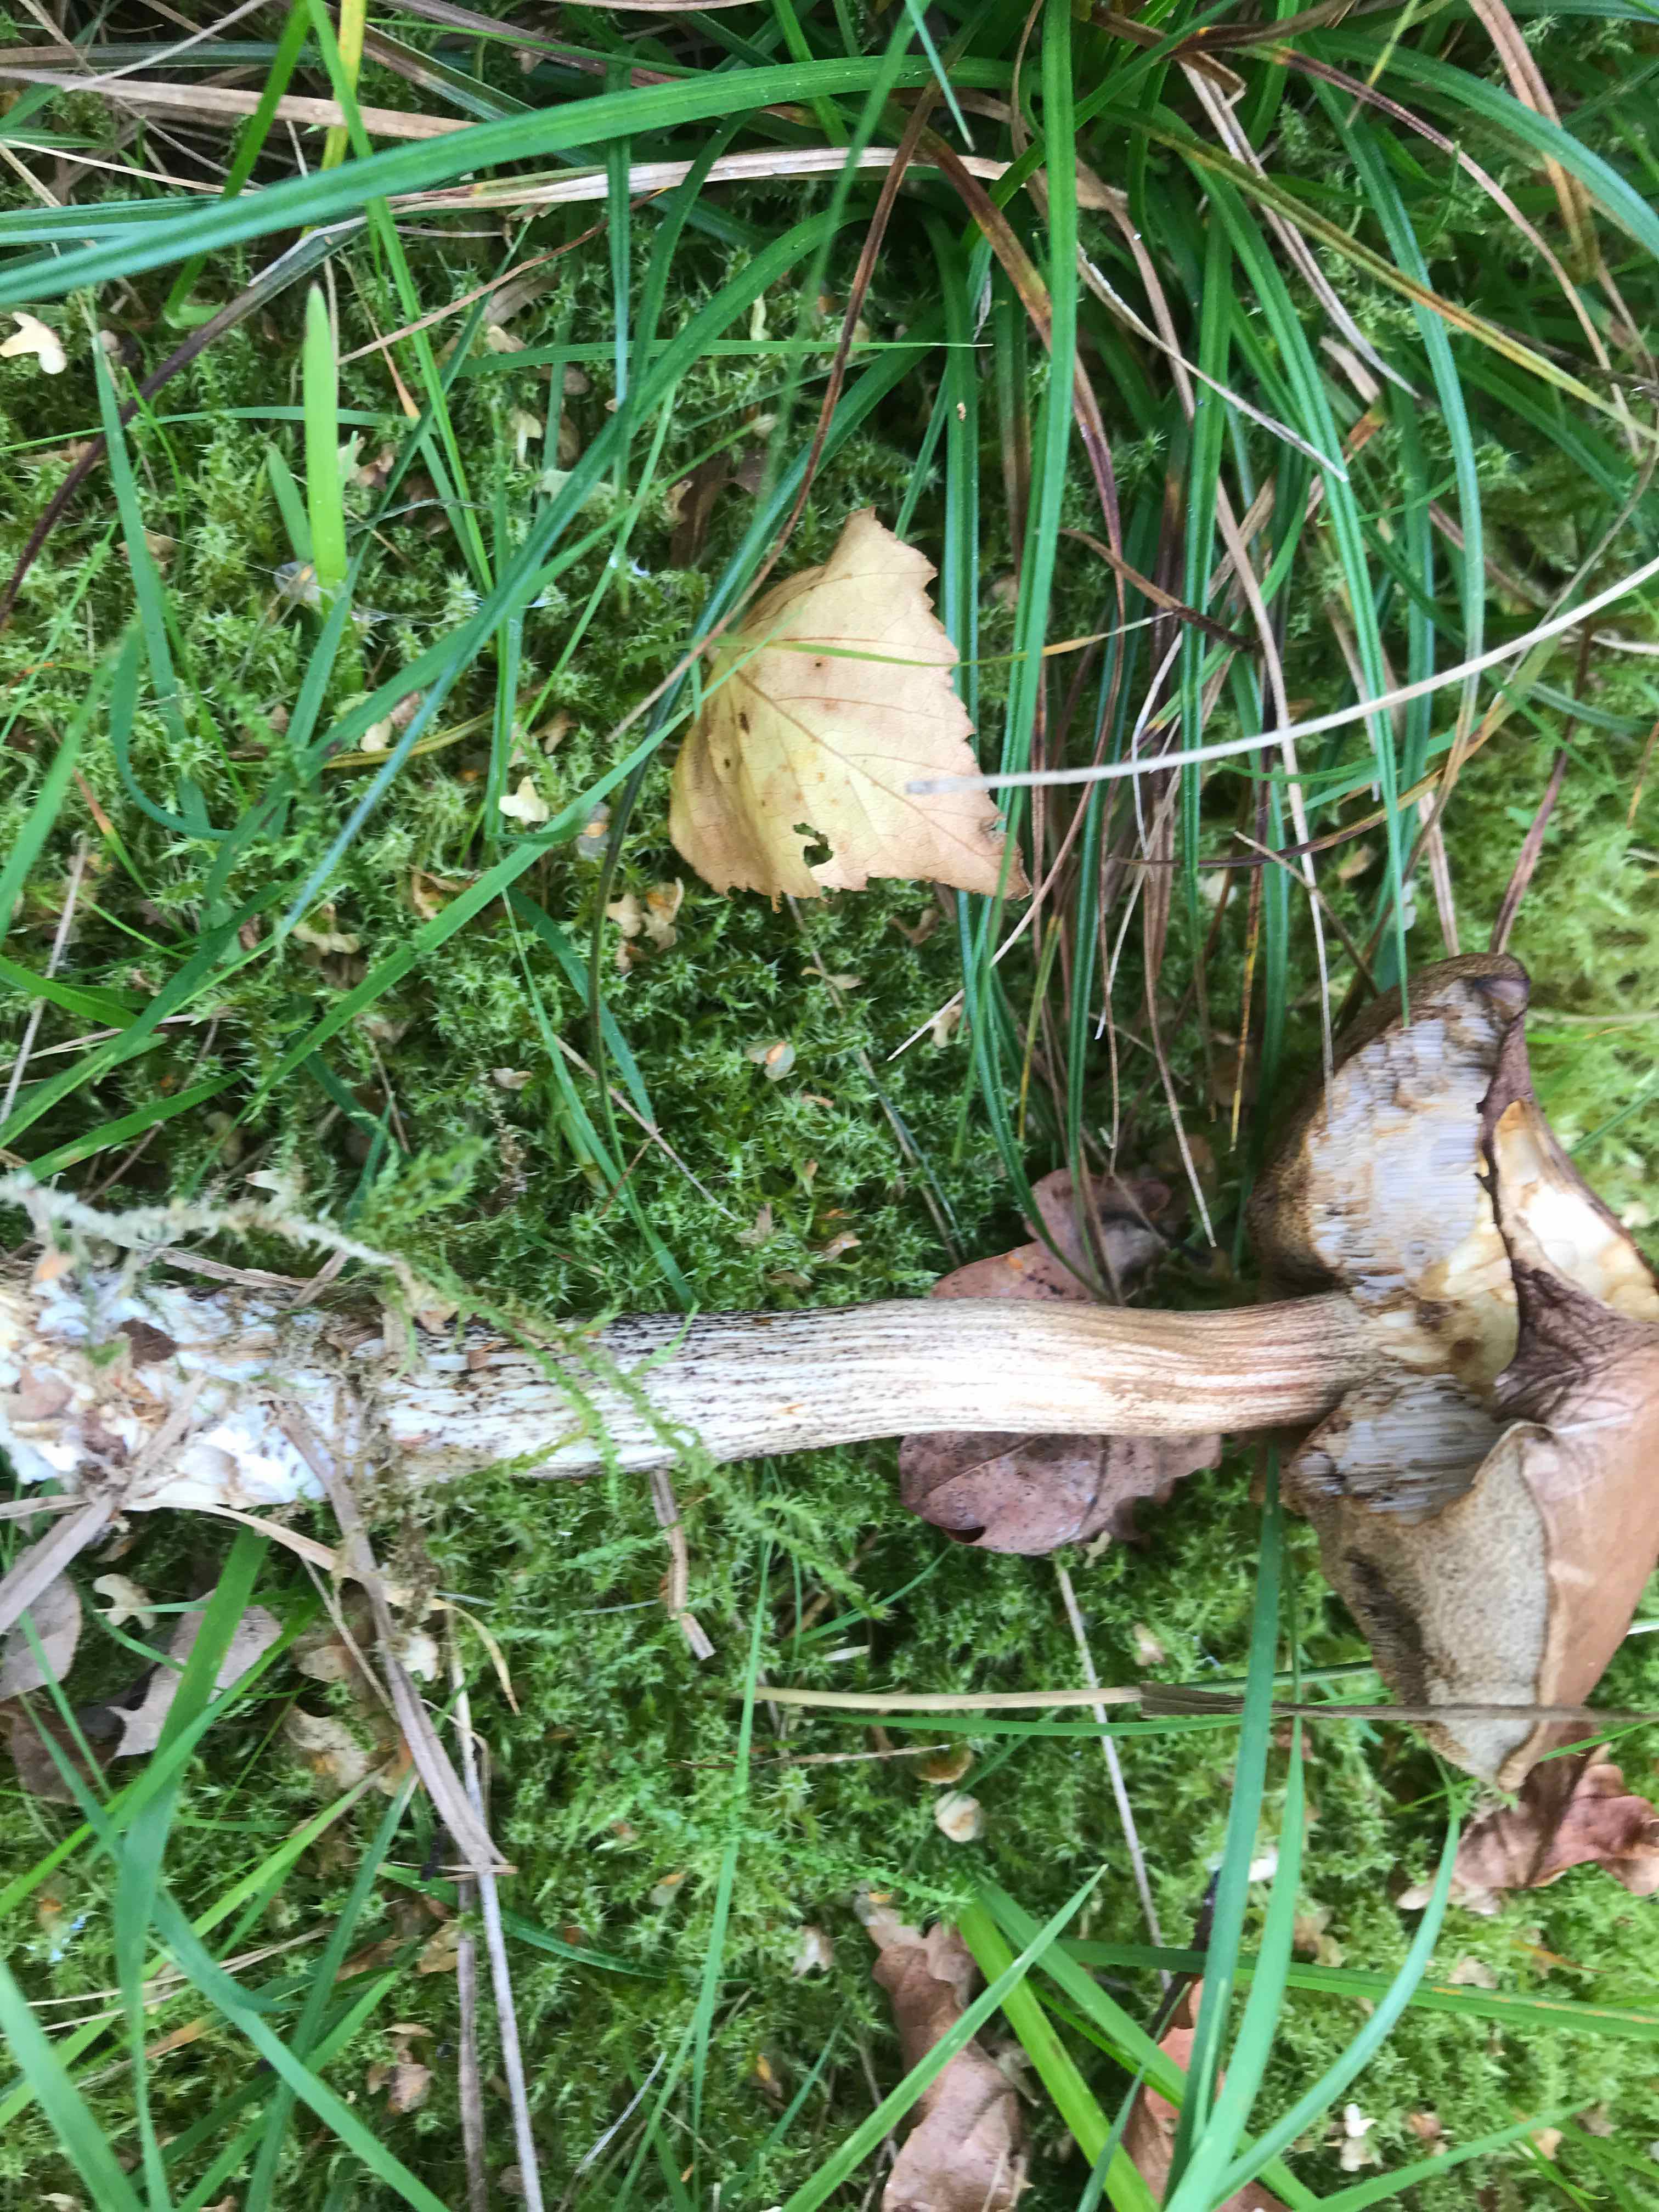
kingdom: Fungi
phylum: Basidiomycota
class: Agaricomycetes
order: Boletales
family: Boletaceae
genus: Leccinum
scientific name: Leccinum scabrum
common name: brun skælrørhat
